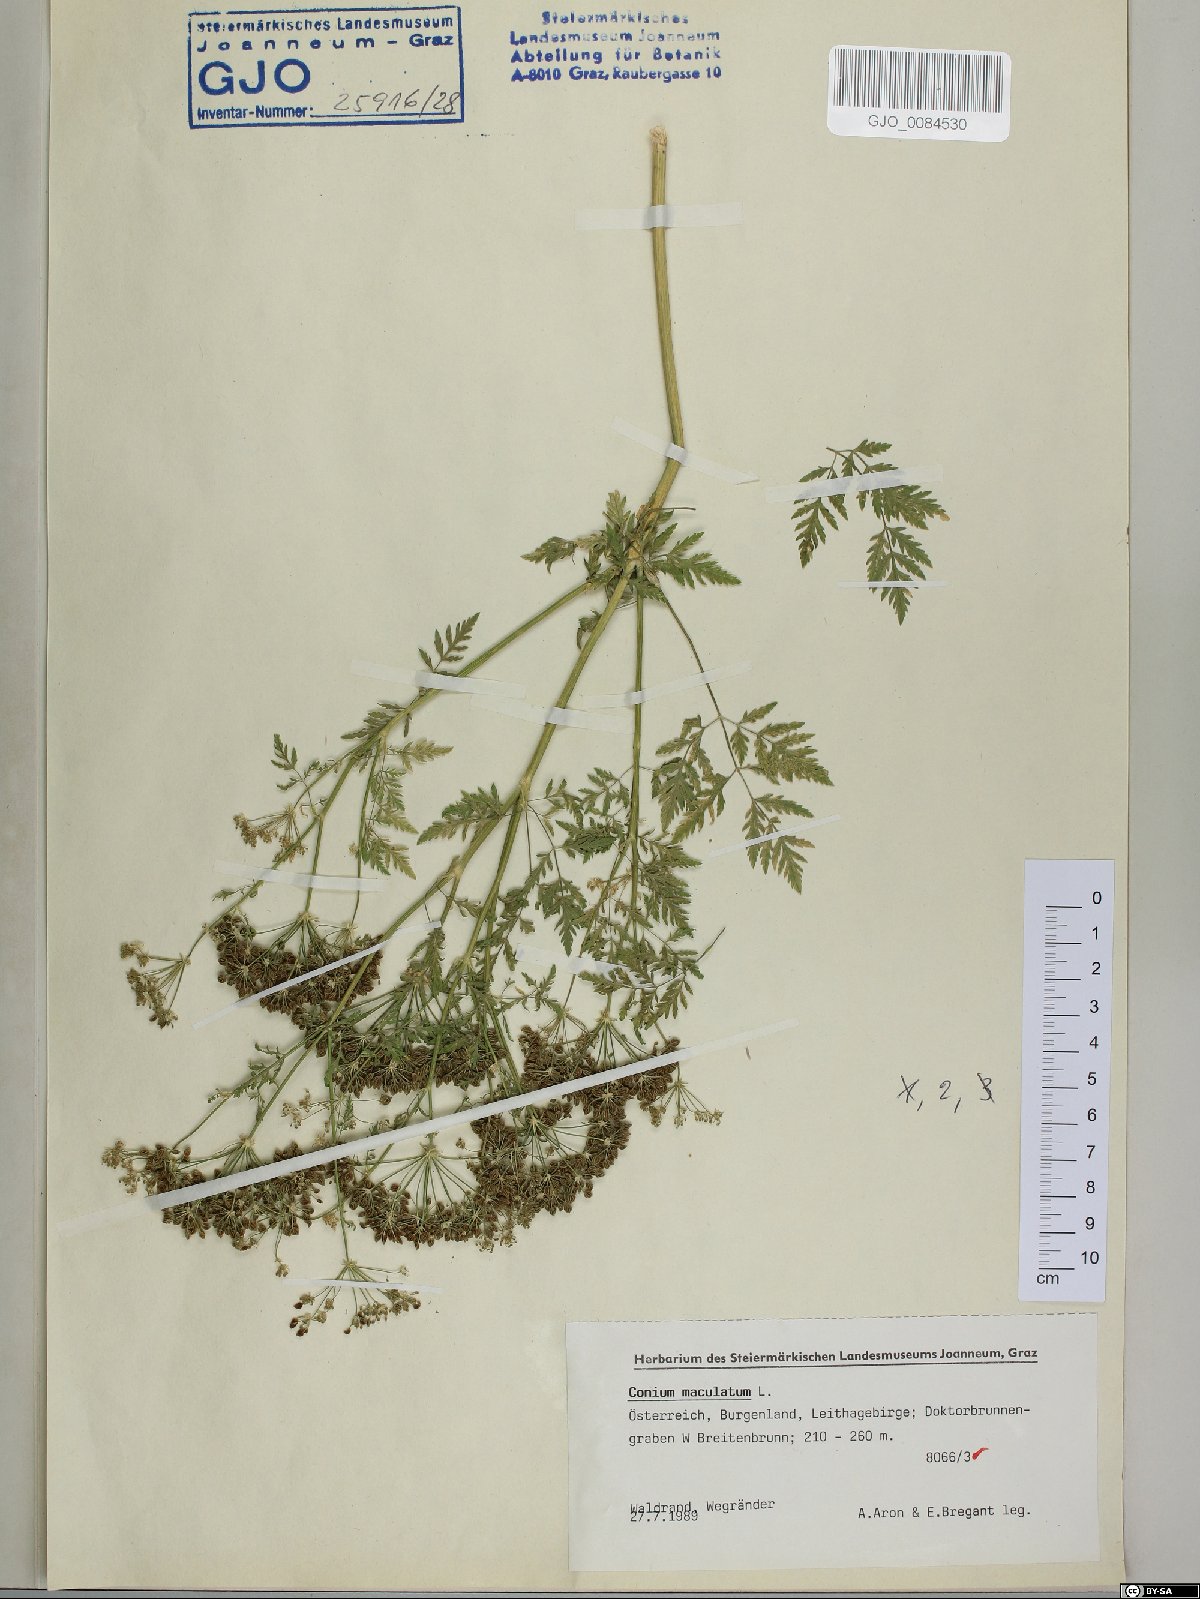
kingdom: Plantae
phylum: Tracheophyta
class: Magnoliopsida
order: Apiales
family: Apiaceae
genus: Conium
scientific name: Conium maculatum
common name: Hemlock
